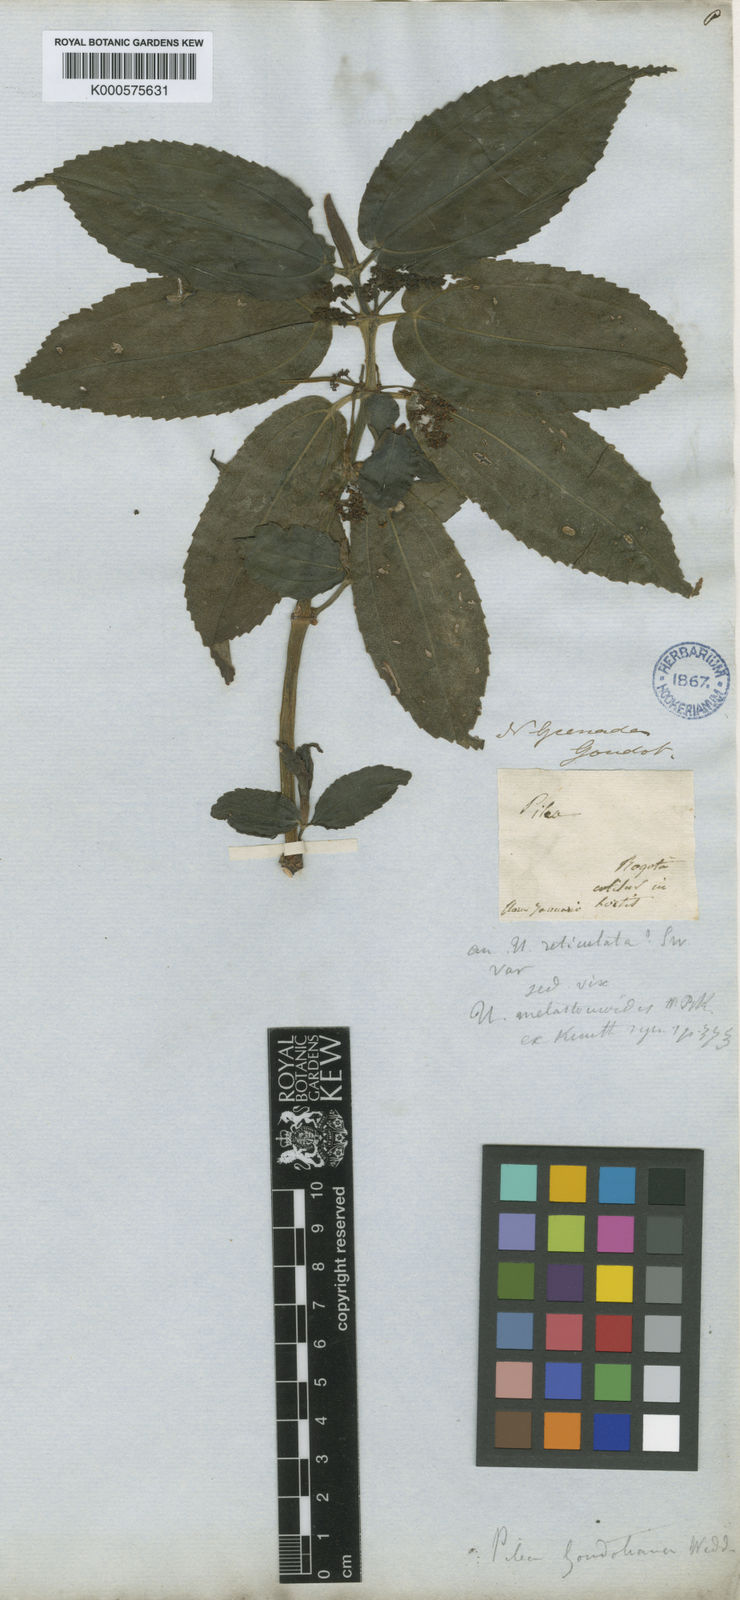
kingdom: Plantae
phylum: Tracheophyta
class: Magnoliopsida
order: Rosales
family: Urticaceae
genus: Pilea
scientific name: Pilea goudotiana
